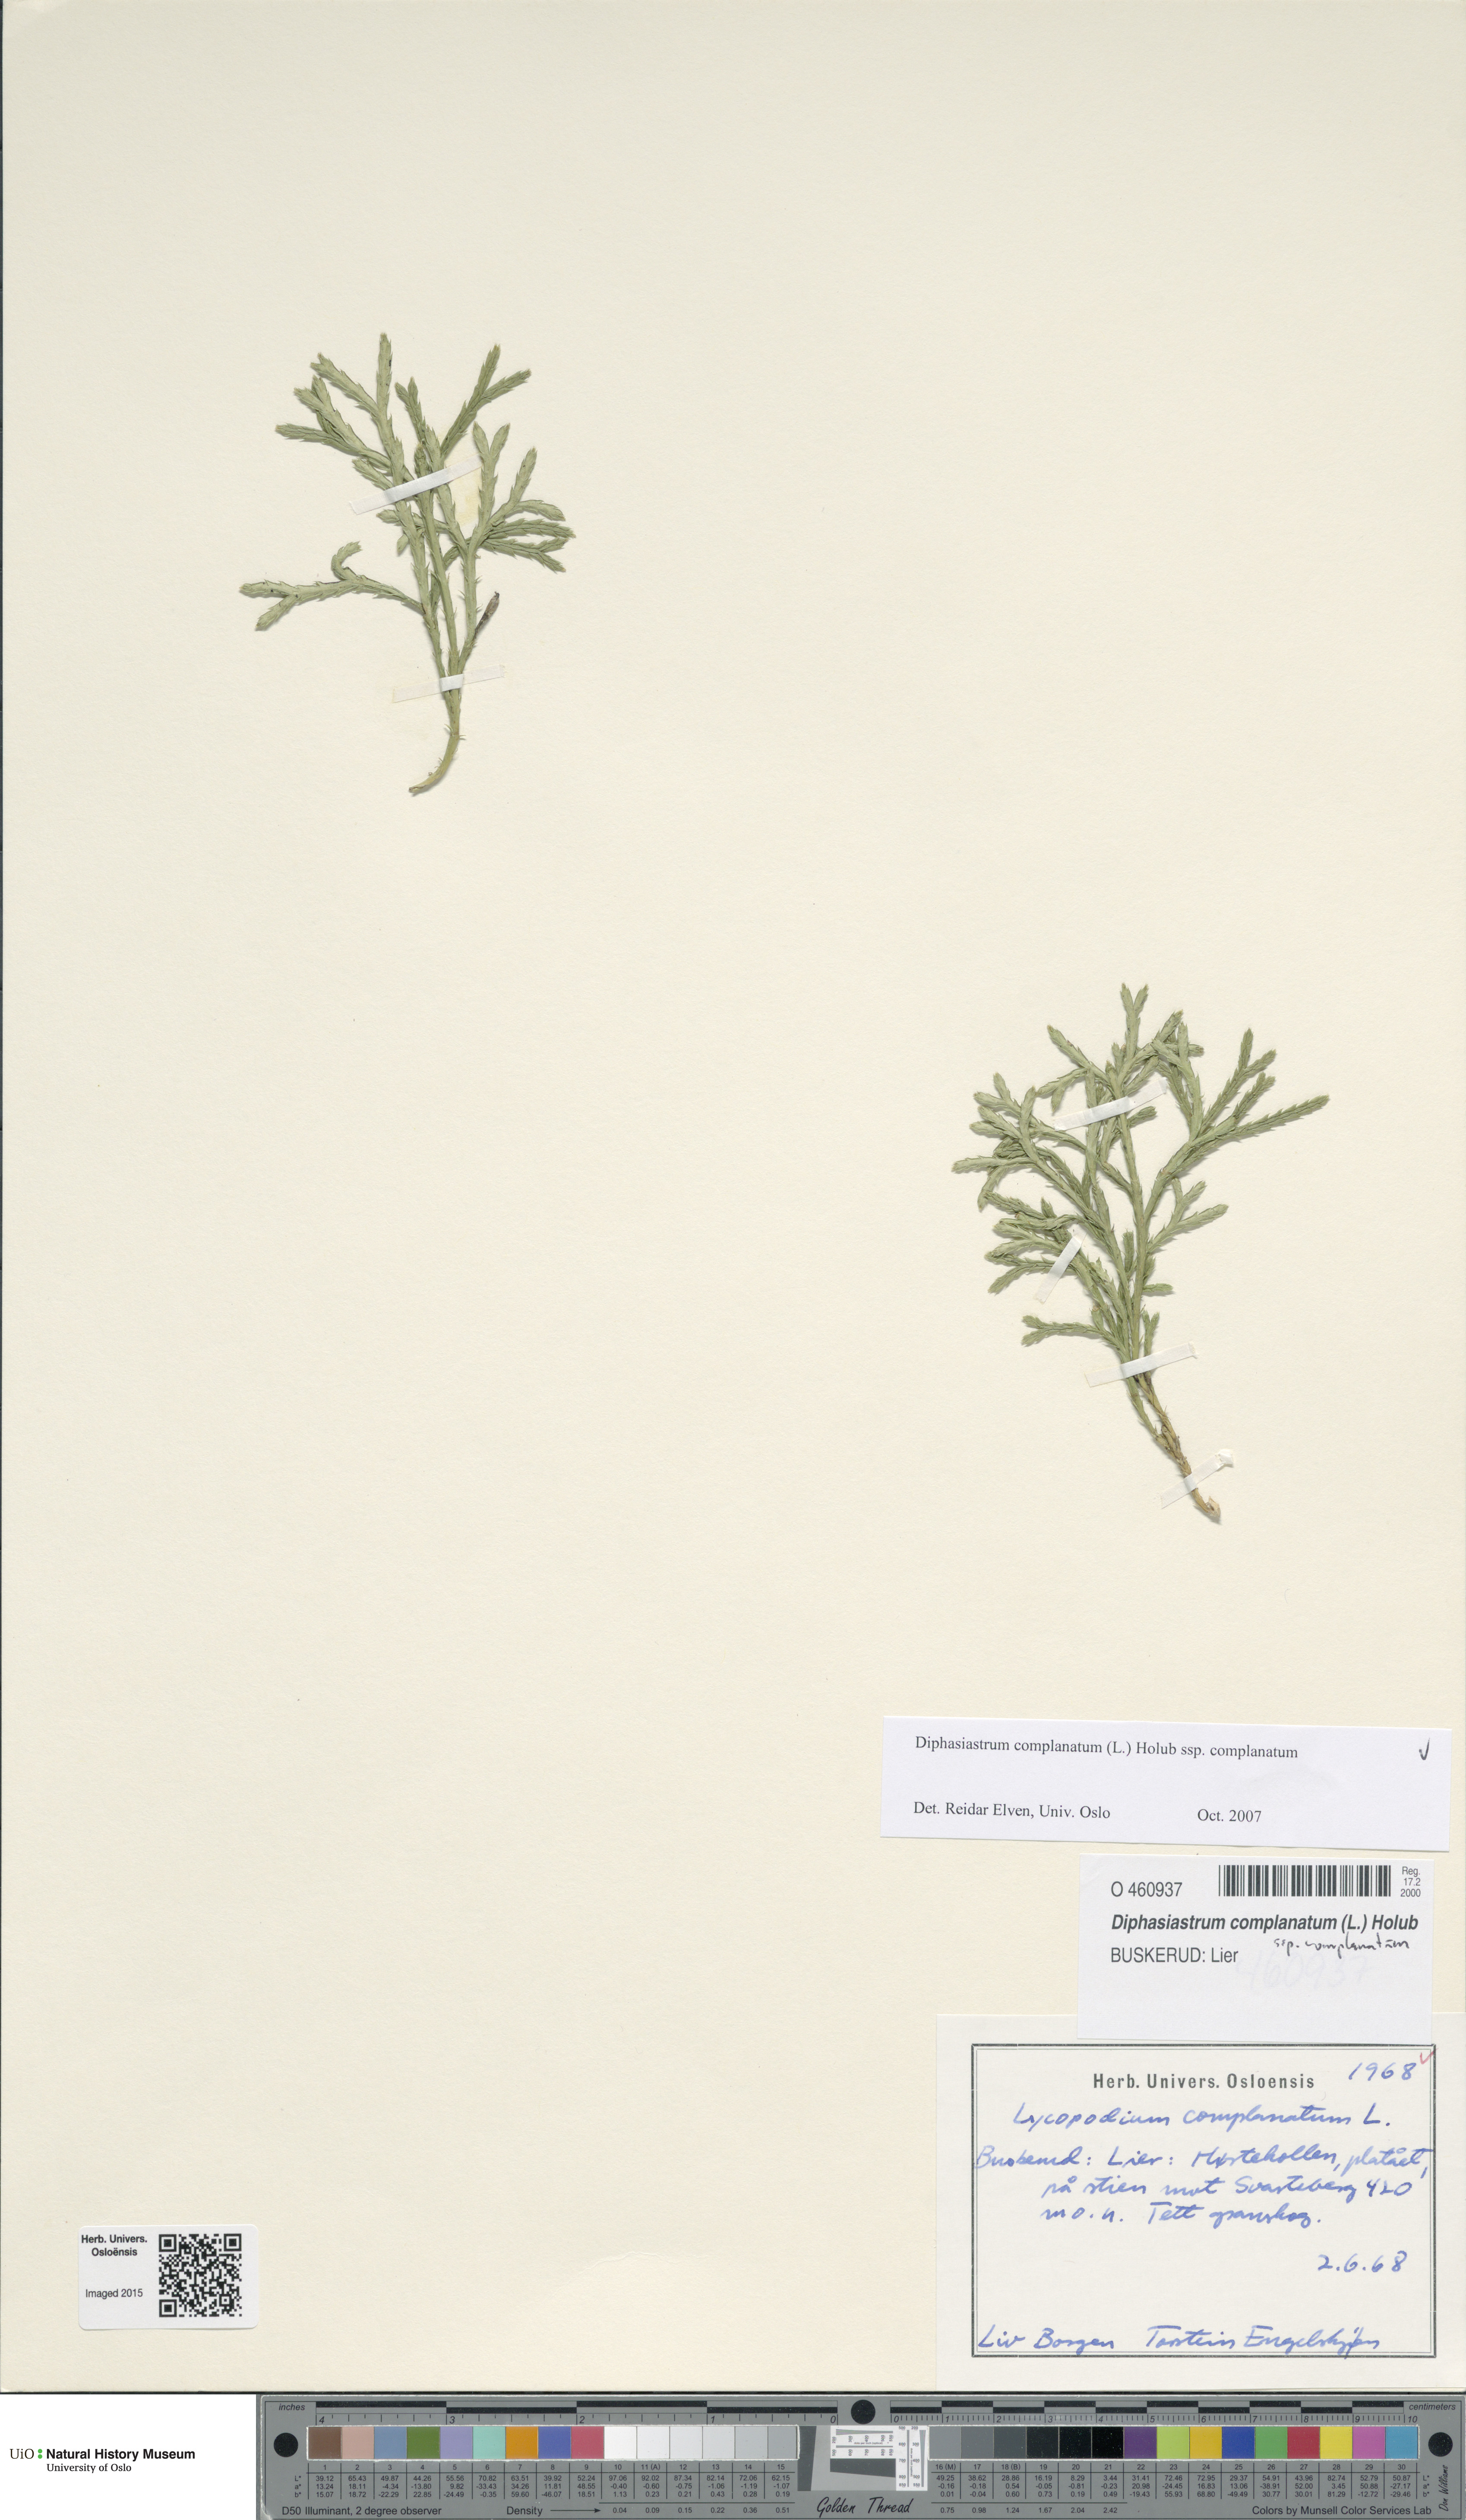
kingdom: Plantae
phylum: Tracheophyta
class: Lycopodiopsida
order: Lycopodiales
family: Lycopodiaceae
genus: Diphasiastrum
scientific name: Diphasiastrum complanatum
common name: Northern running-pine
